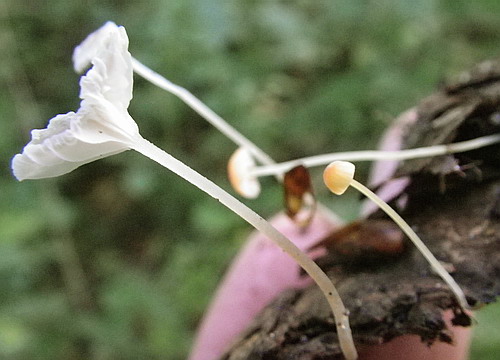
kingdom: Fungi
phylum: Basidiomycota
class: Agaricomycetes
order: Agaricales
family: Mycenaceae
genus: Mycena
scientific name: Mycena acicula
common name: orange huesvamp
